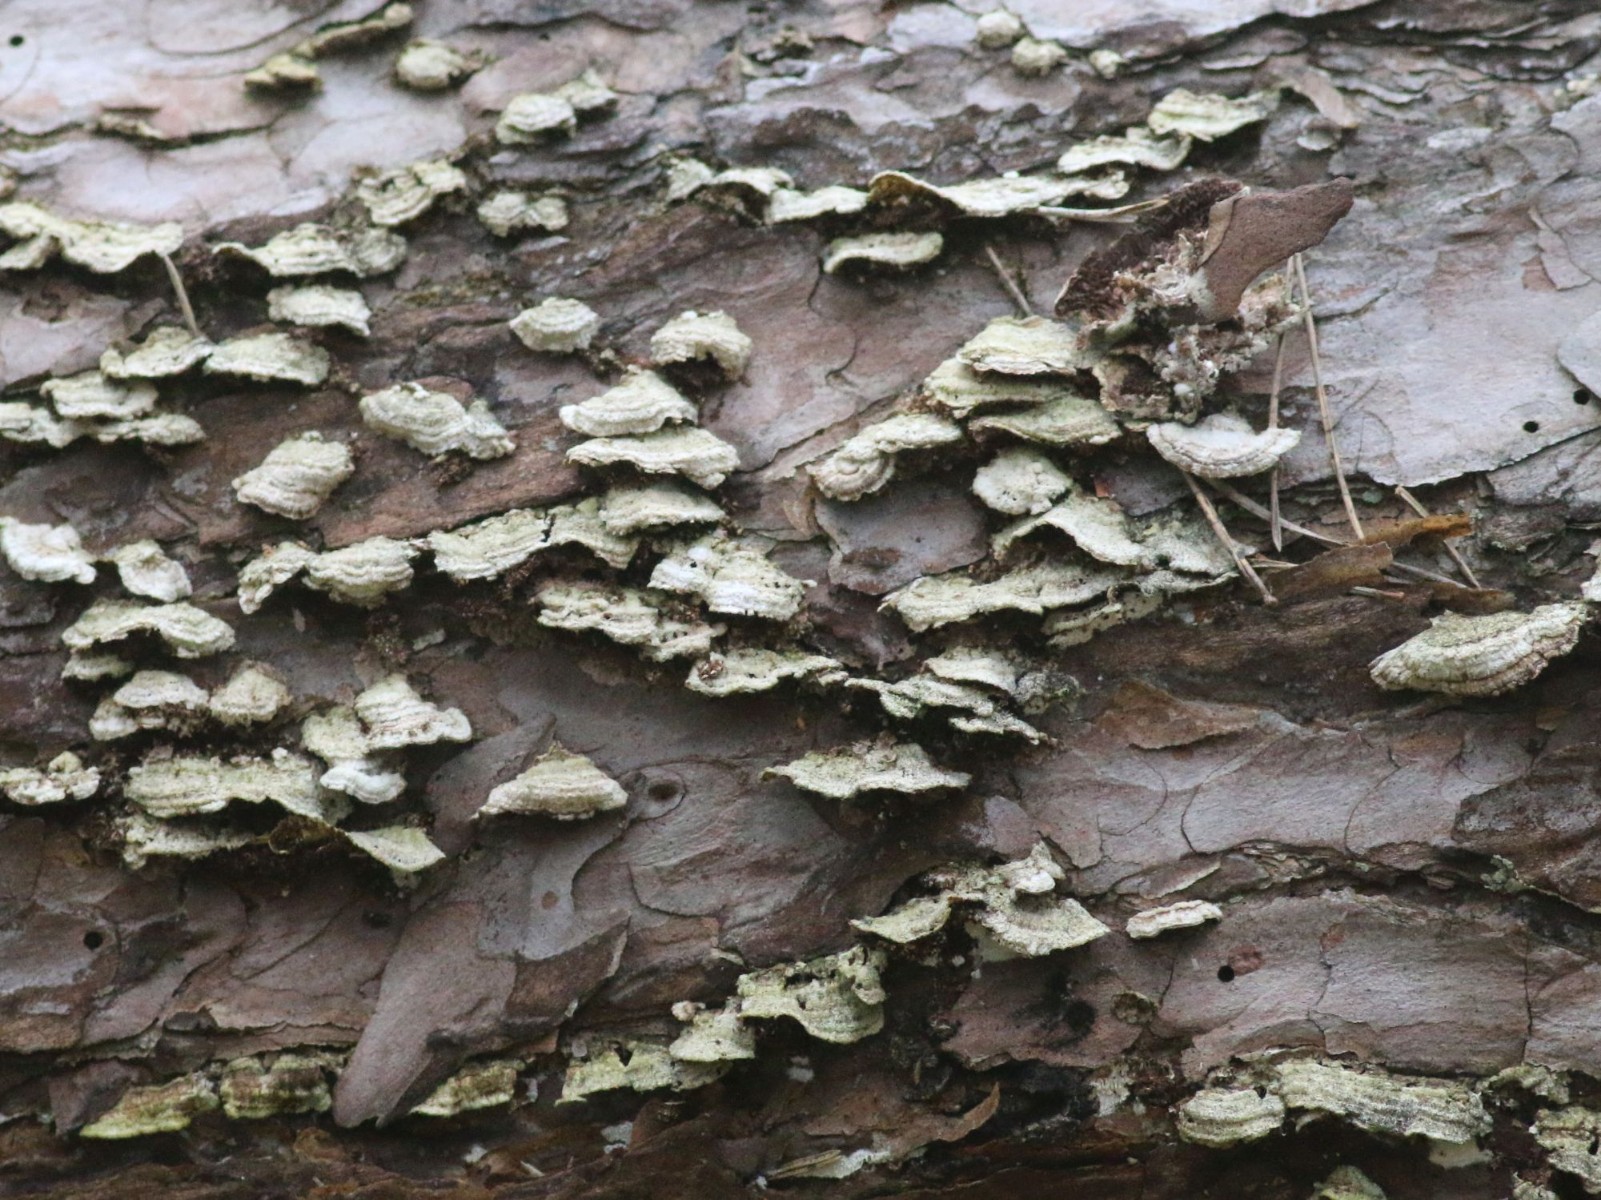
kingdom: Fungi
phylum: Basidiomycota
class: Agaricomycetes
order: Hymenochaetales
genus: Trichaptum
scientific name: Trichaptum fuscoviolaceum
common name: tandet violporesvamp
